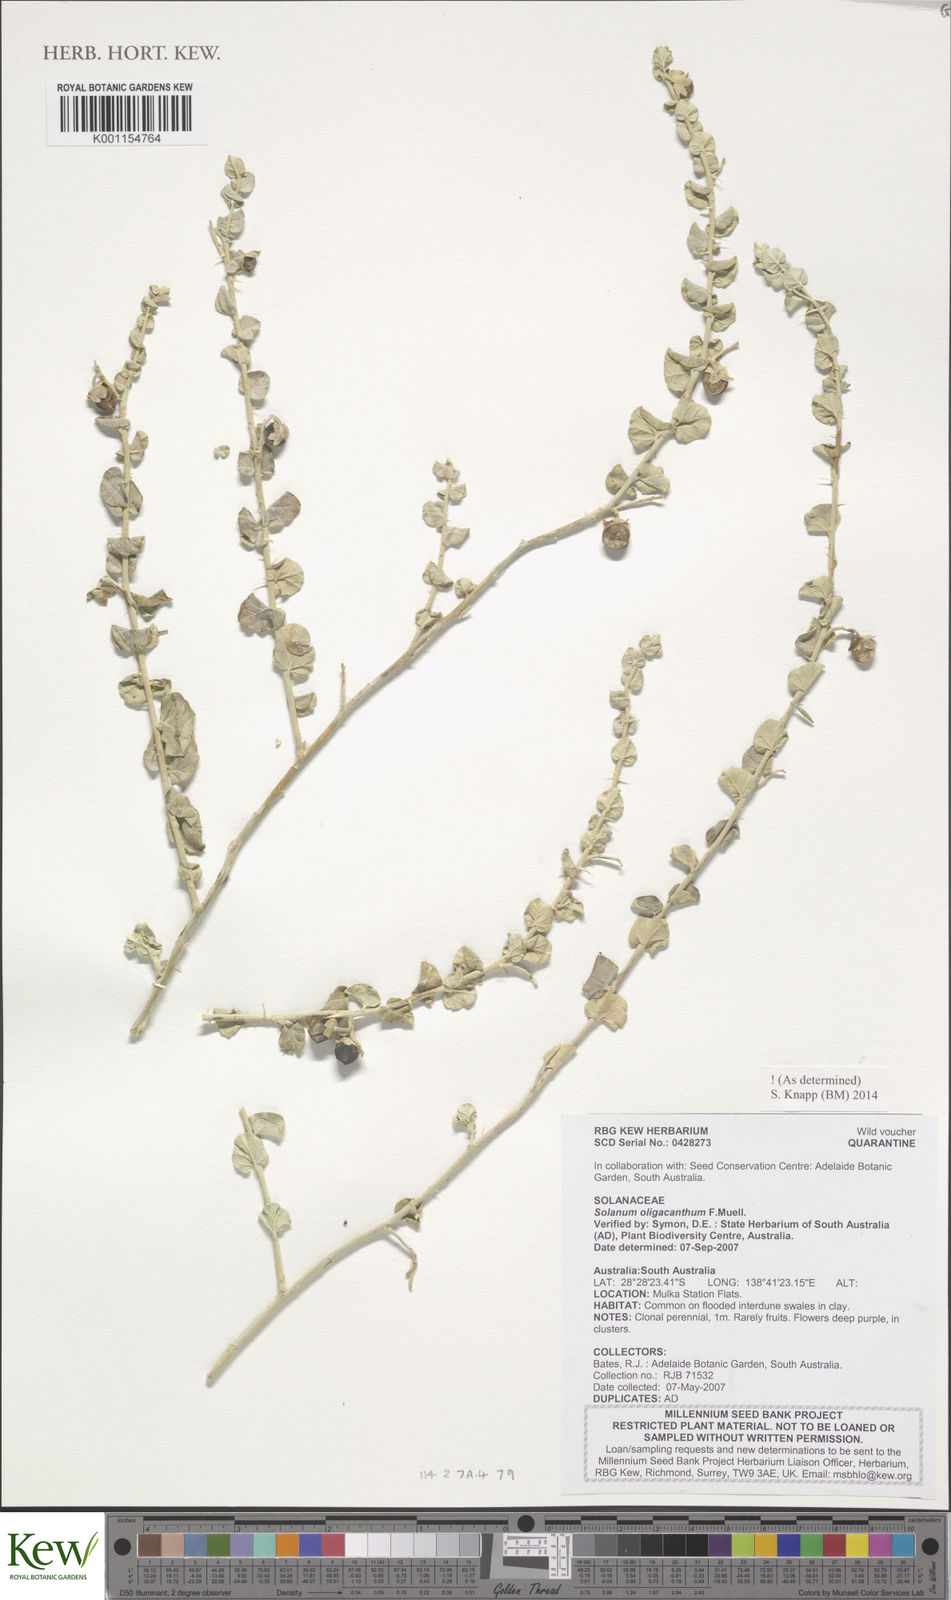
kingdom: Plantae
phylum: Tracheophyta
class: Magnoliopsida
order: Solanales
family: Solanaceae
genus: Solanum
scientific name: Solanum oligacanthum
